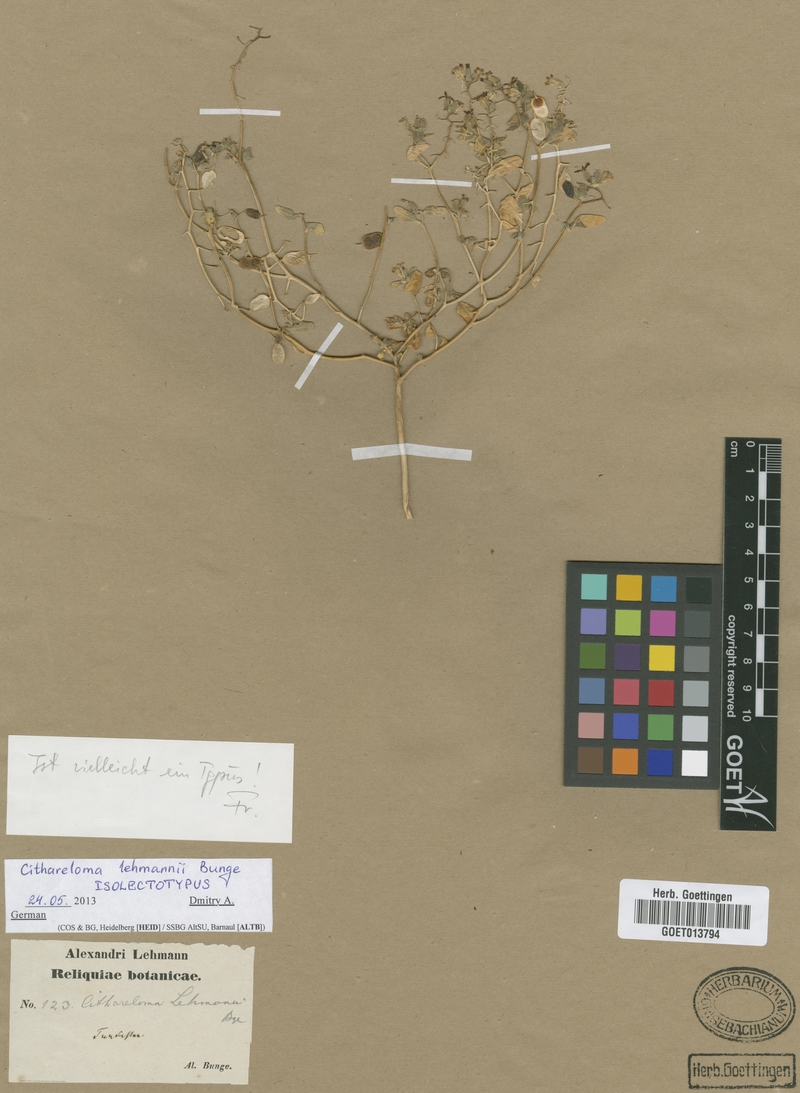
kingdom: Plantae
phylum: Tracheophyta
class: Magnoliopsida
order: Brassicales
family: Brassicaceae
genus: Cithareloma
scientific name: Cithareloma lehmannii
